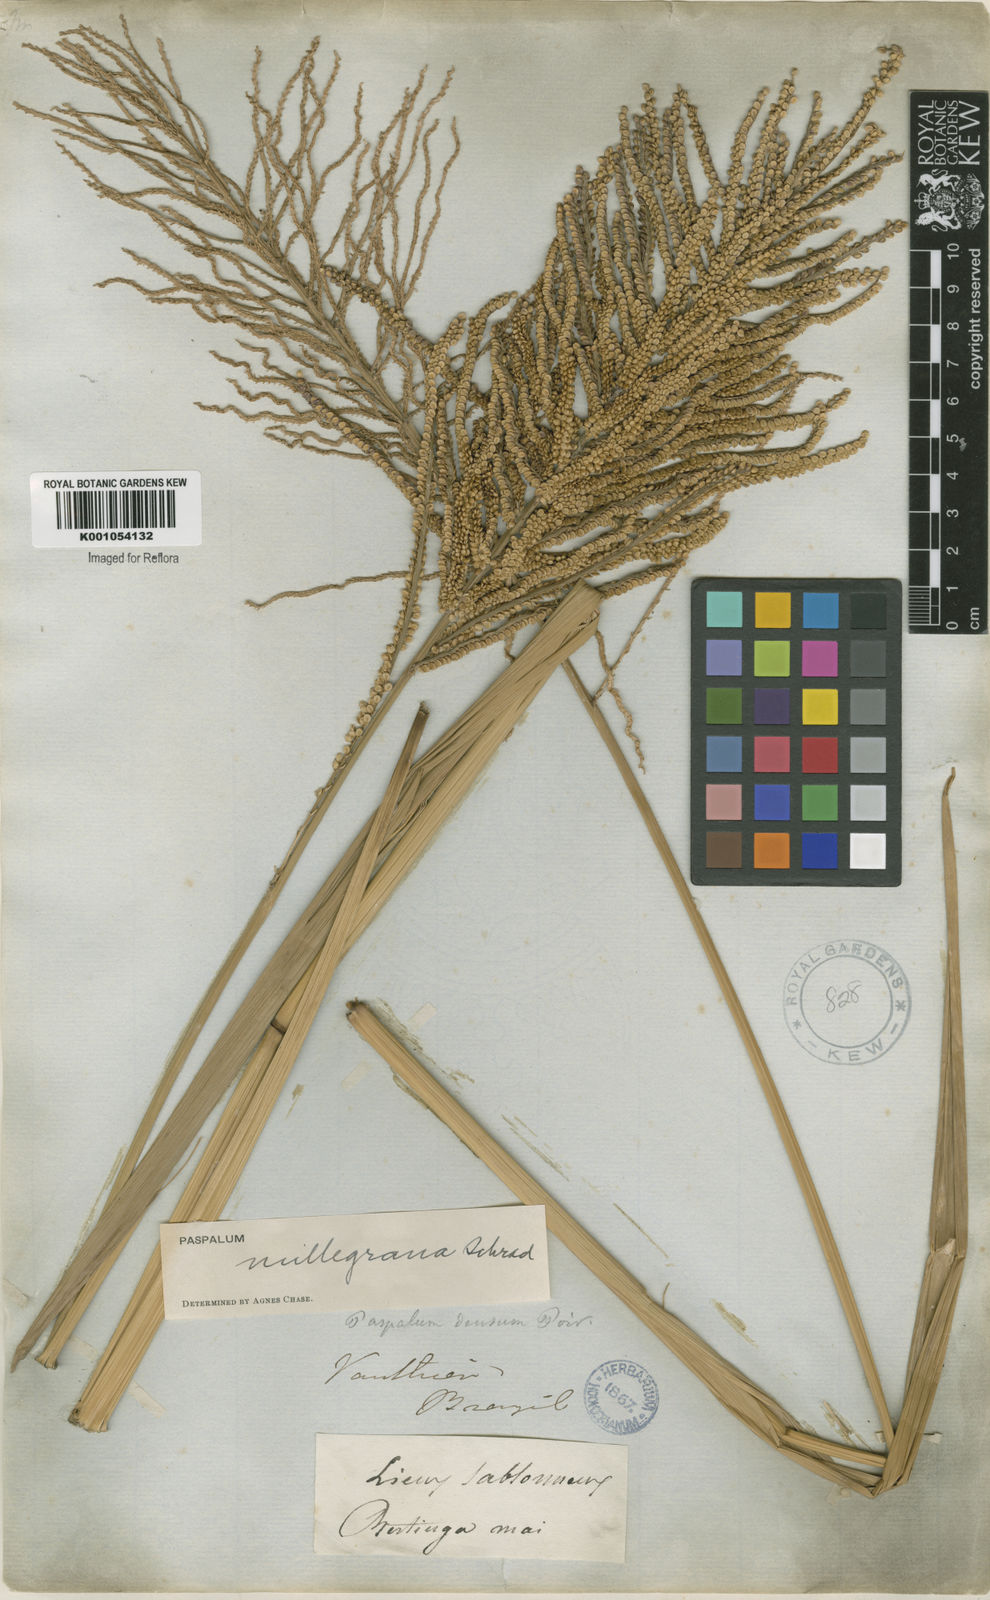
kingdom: Plantae
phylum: Tracheophyta
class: Liliopsida
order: Poales
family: Poaceae
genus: Paspalum
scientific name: Paspalum
